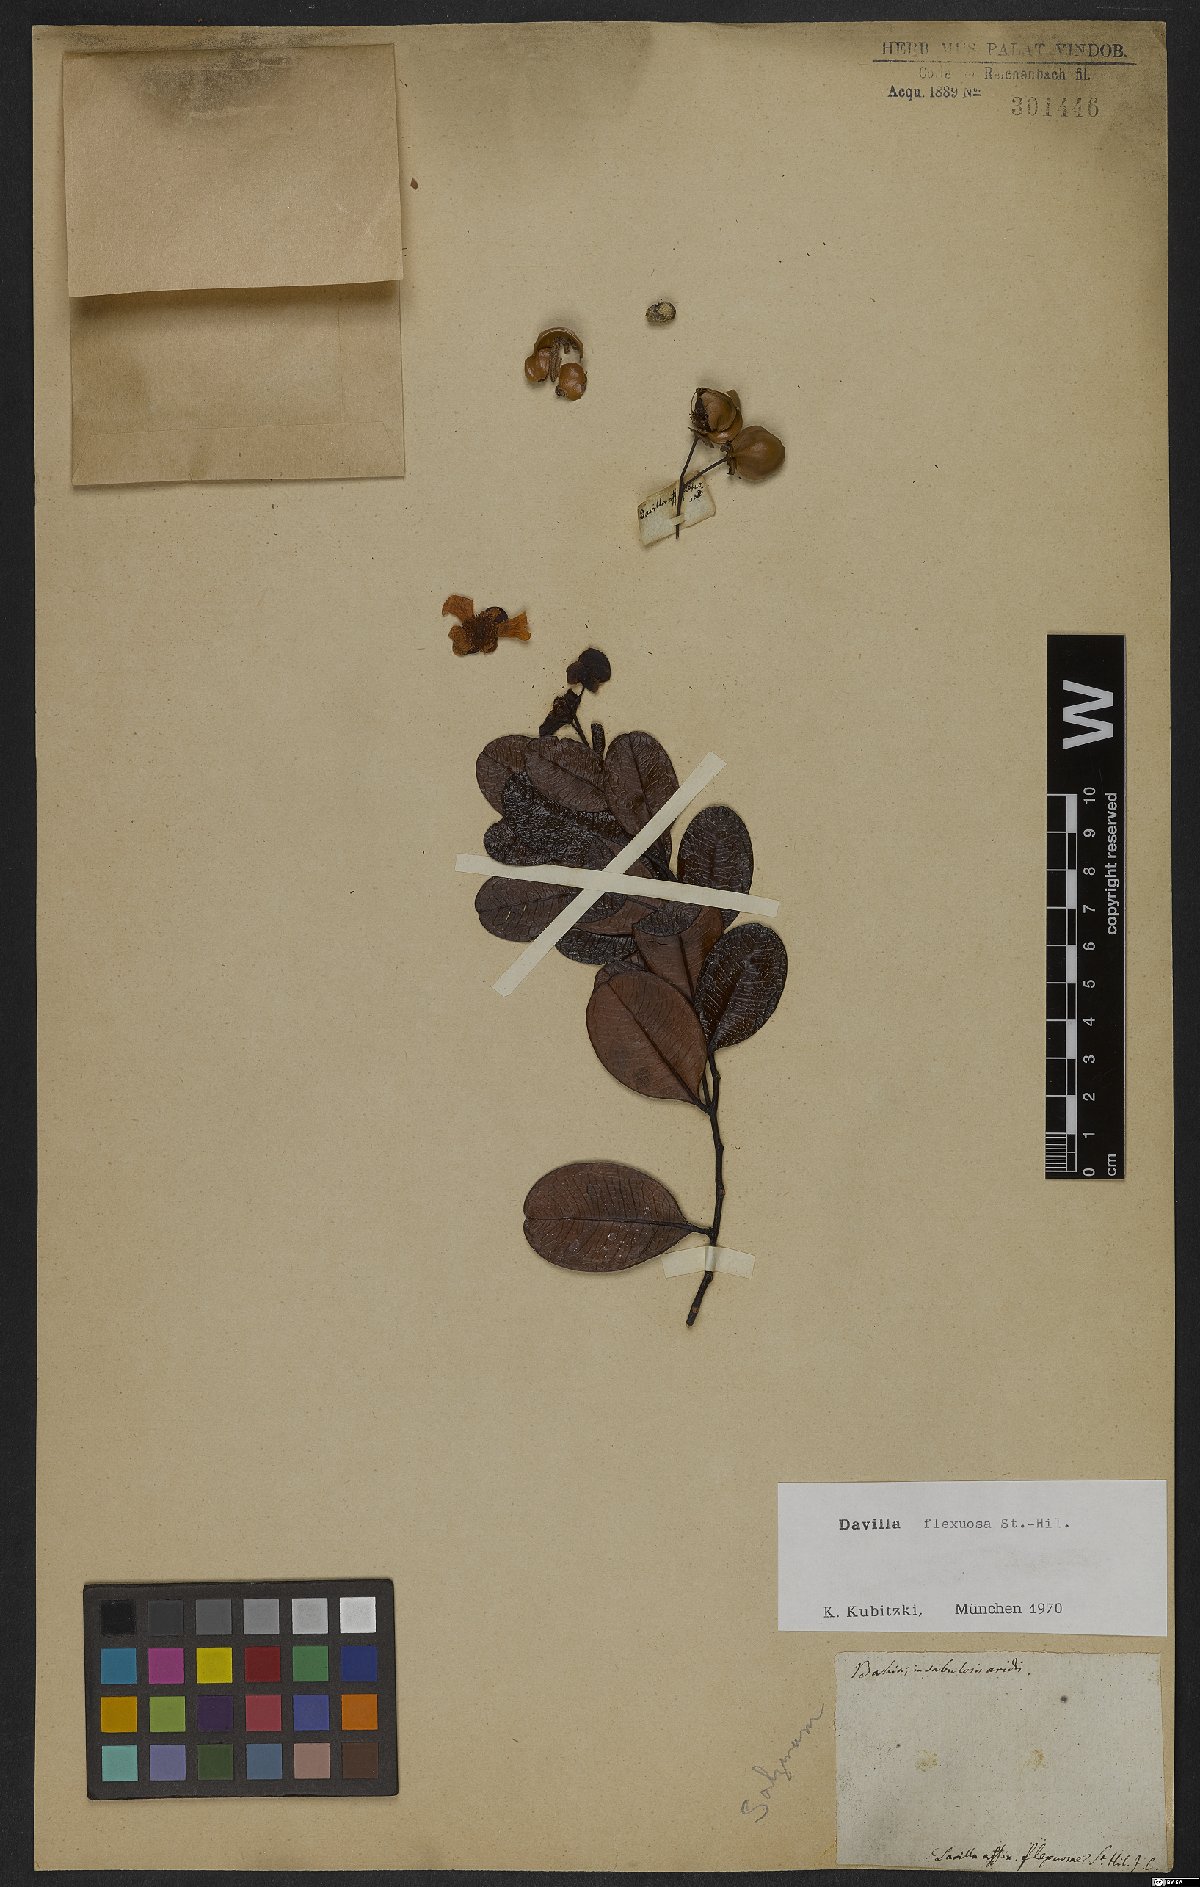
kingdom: Plantae
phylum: Tracheophyta
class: Magnoliopsida
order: Dilleniales
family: Dilleniaceae
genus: Davilla
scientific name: Davilla flexuosa
